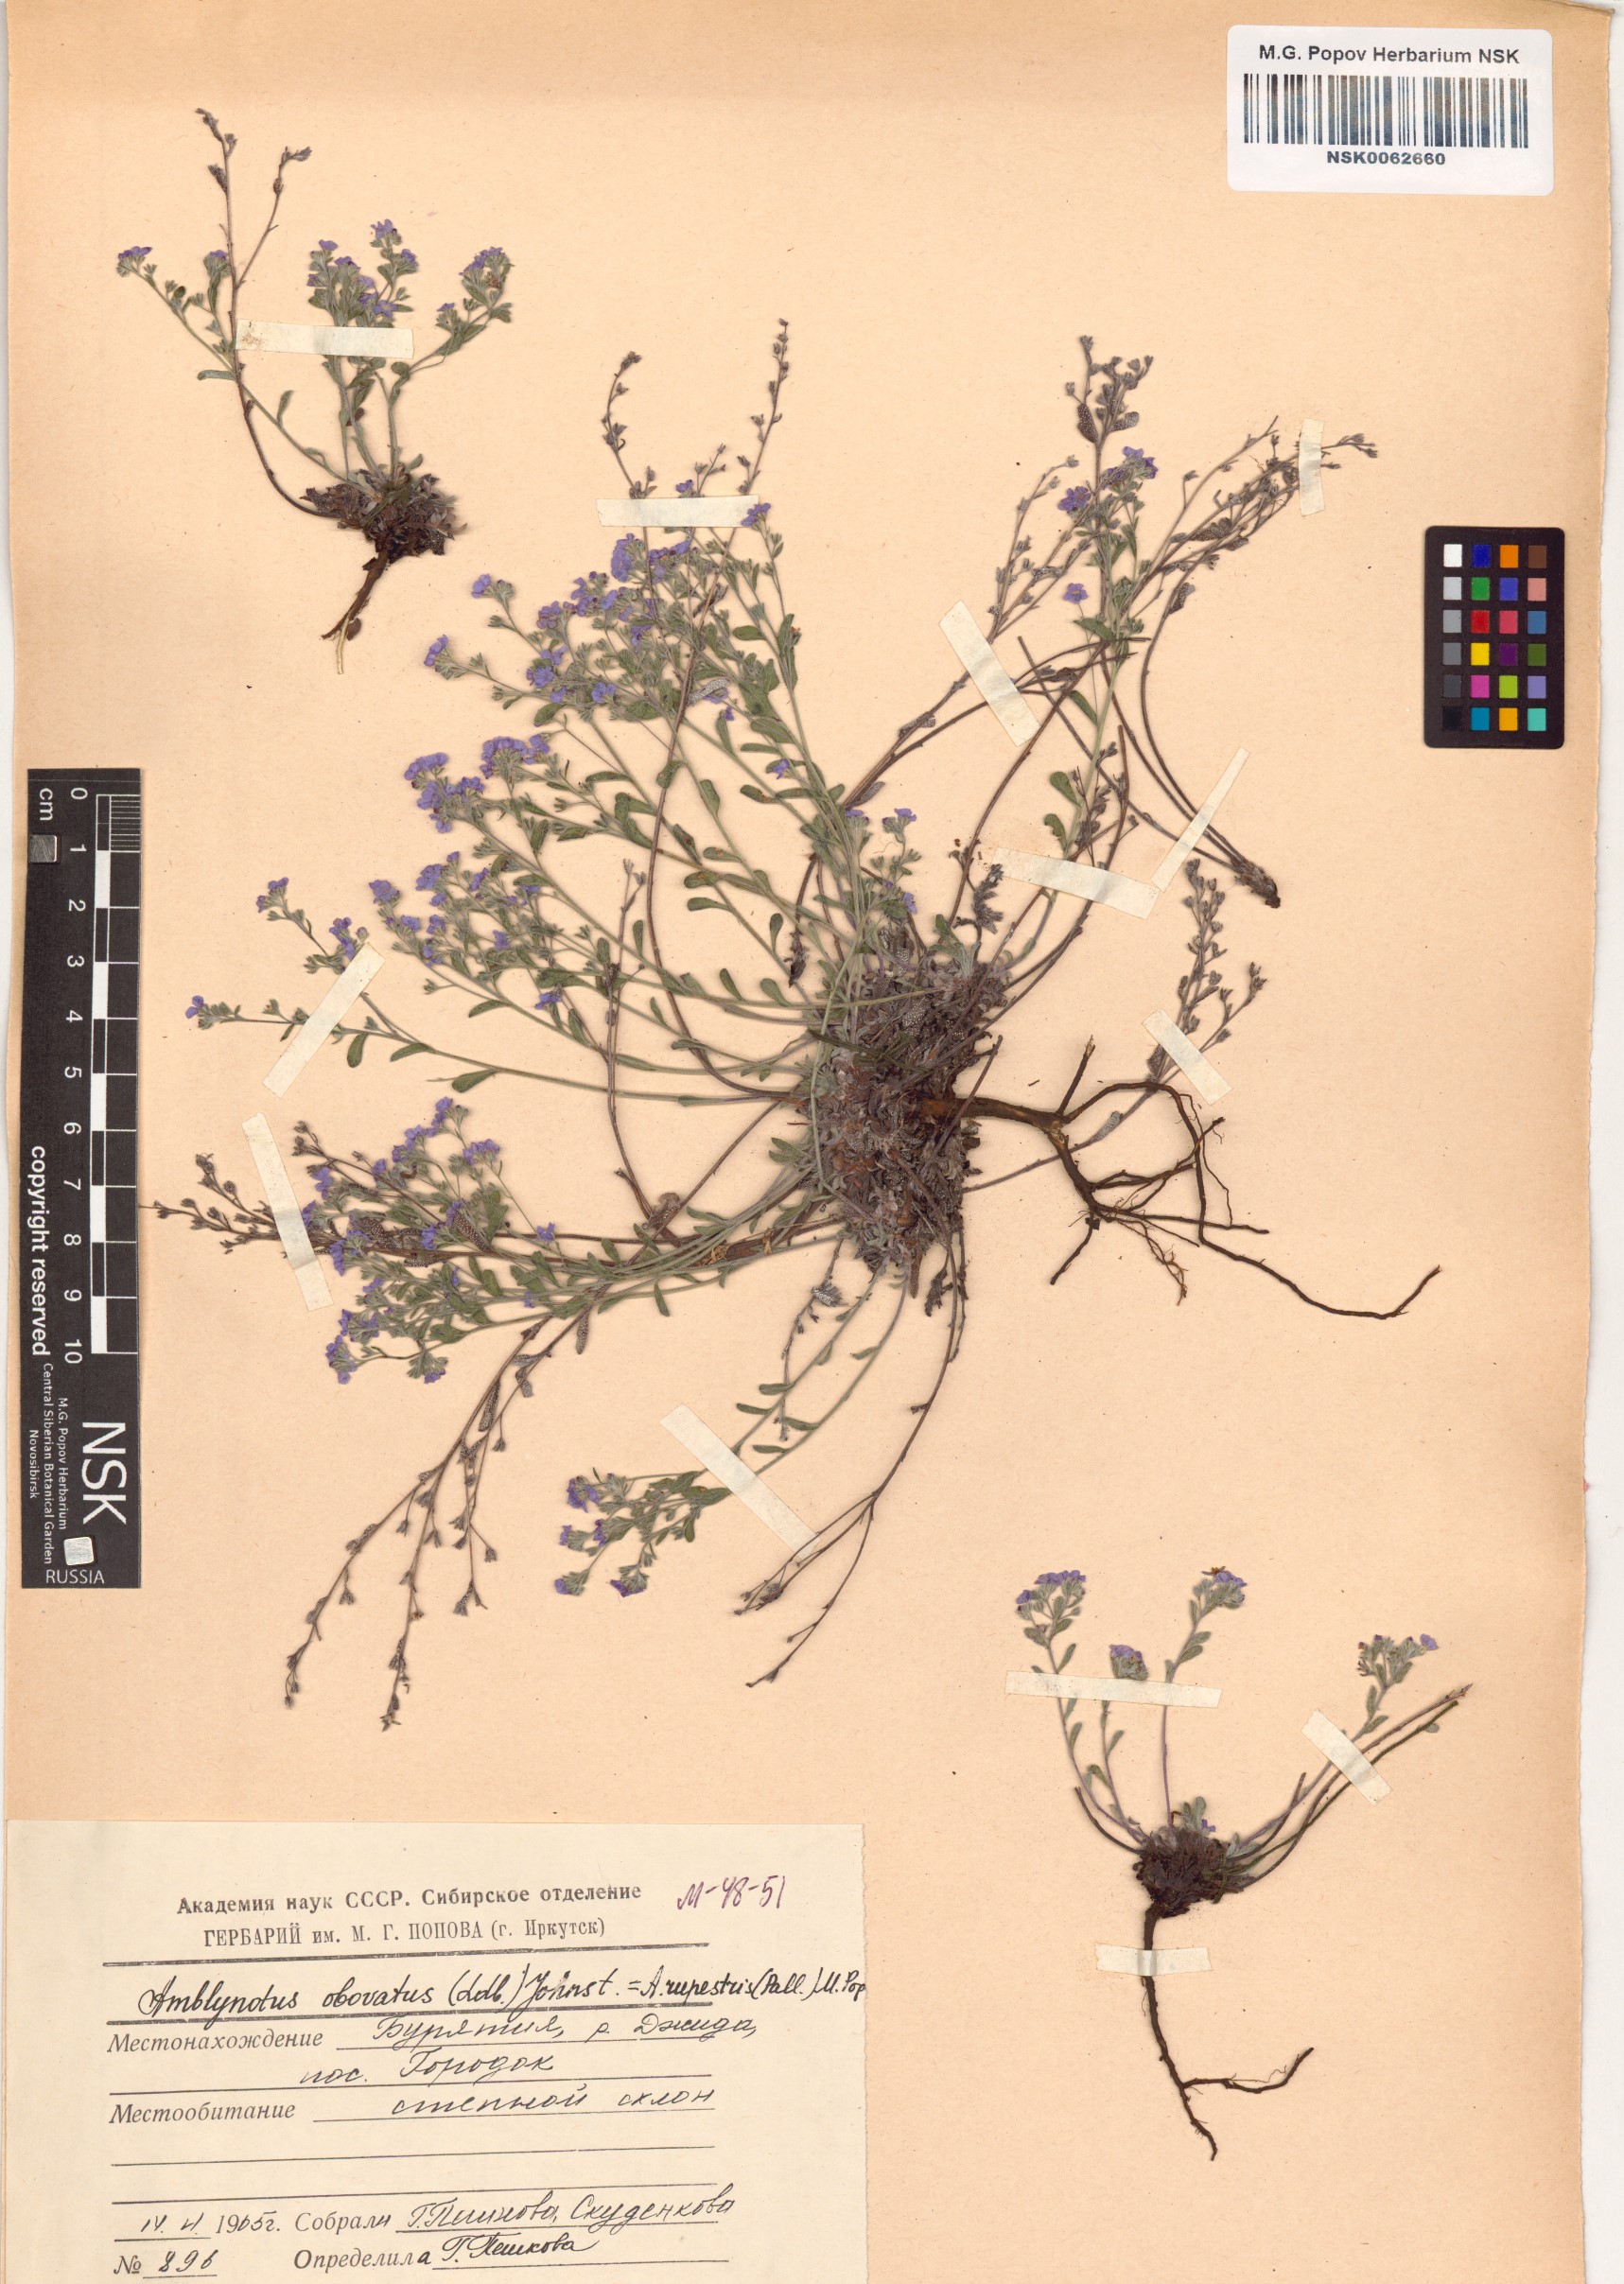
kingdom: Plantae
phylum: Tracheophyta
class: Magnoliopsida
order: Boraginales
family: Boraginaceae
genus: Eritrichium
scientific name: Eritrichium rupestre
